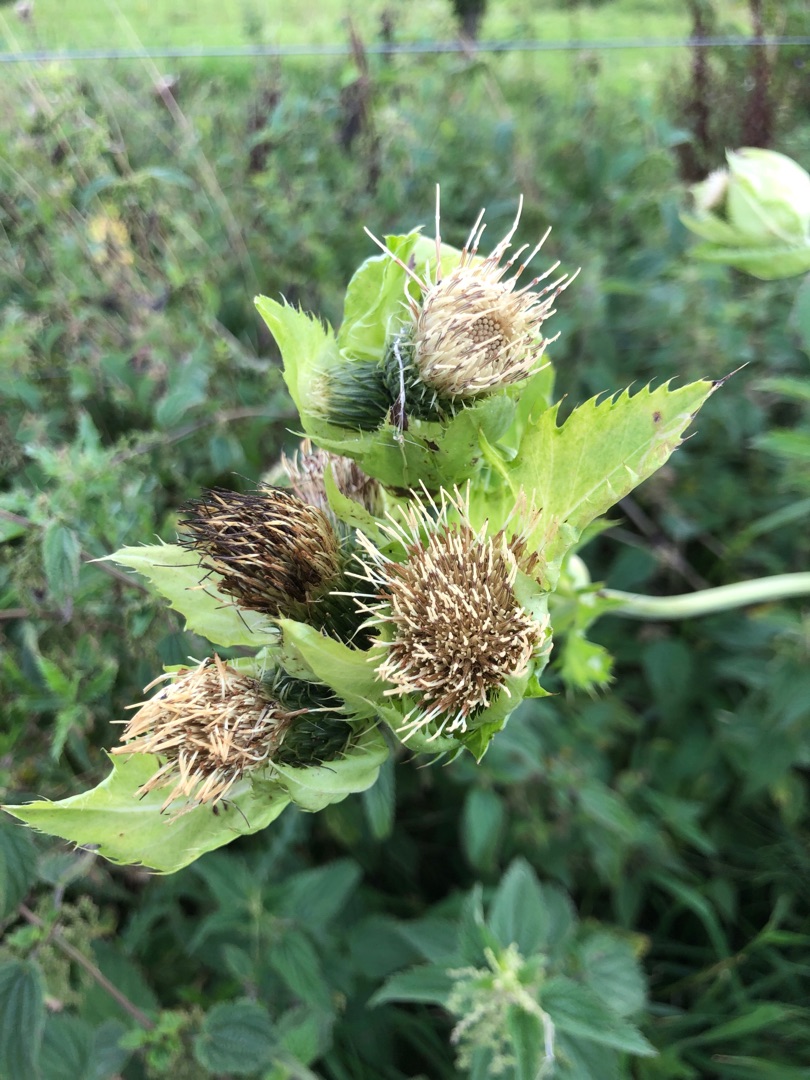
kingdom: Plantae
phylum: Tracheophyta
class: Magnoliopsida
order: Asterales
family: Asteraceae
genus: Cirsium
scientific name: Cirsium oleraceum
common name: Kål-tidsel
